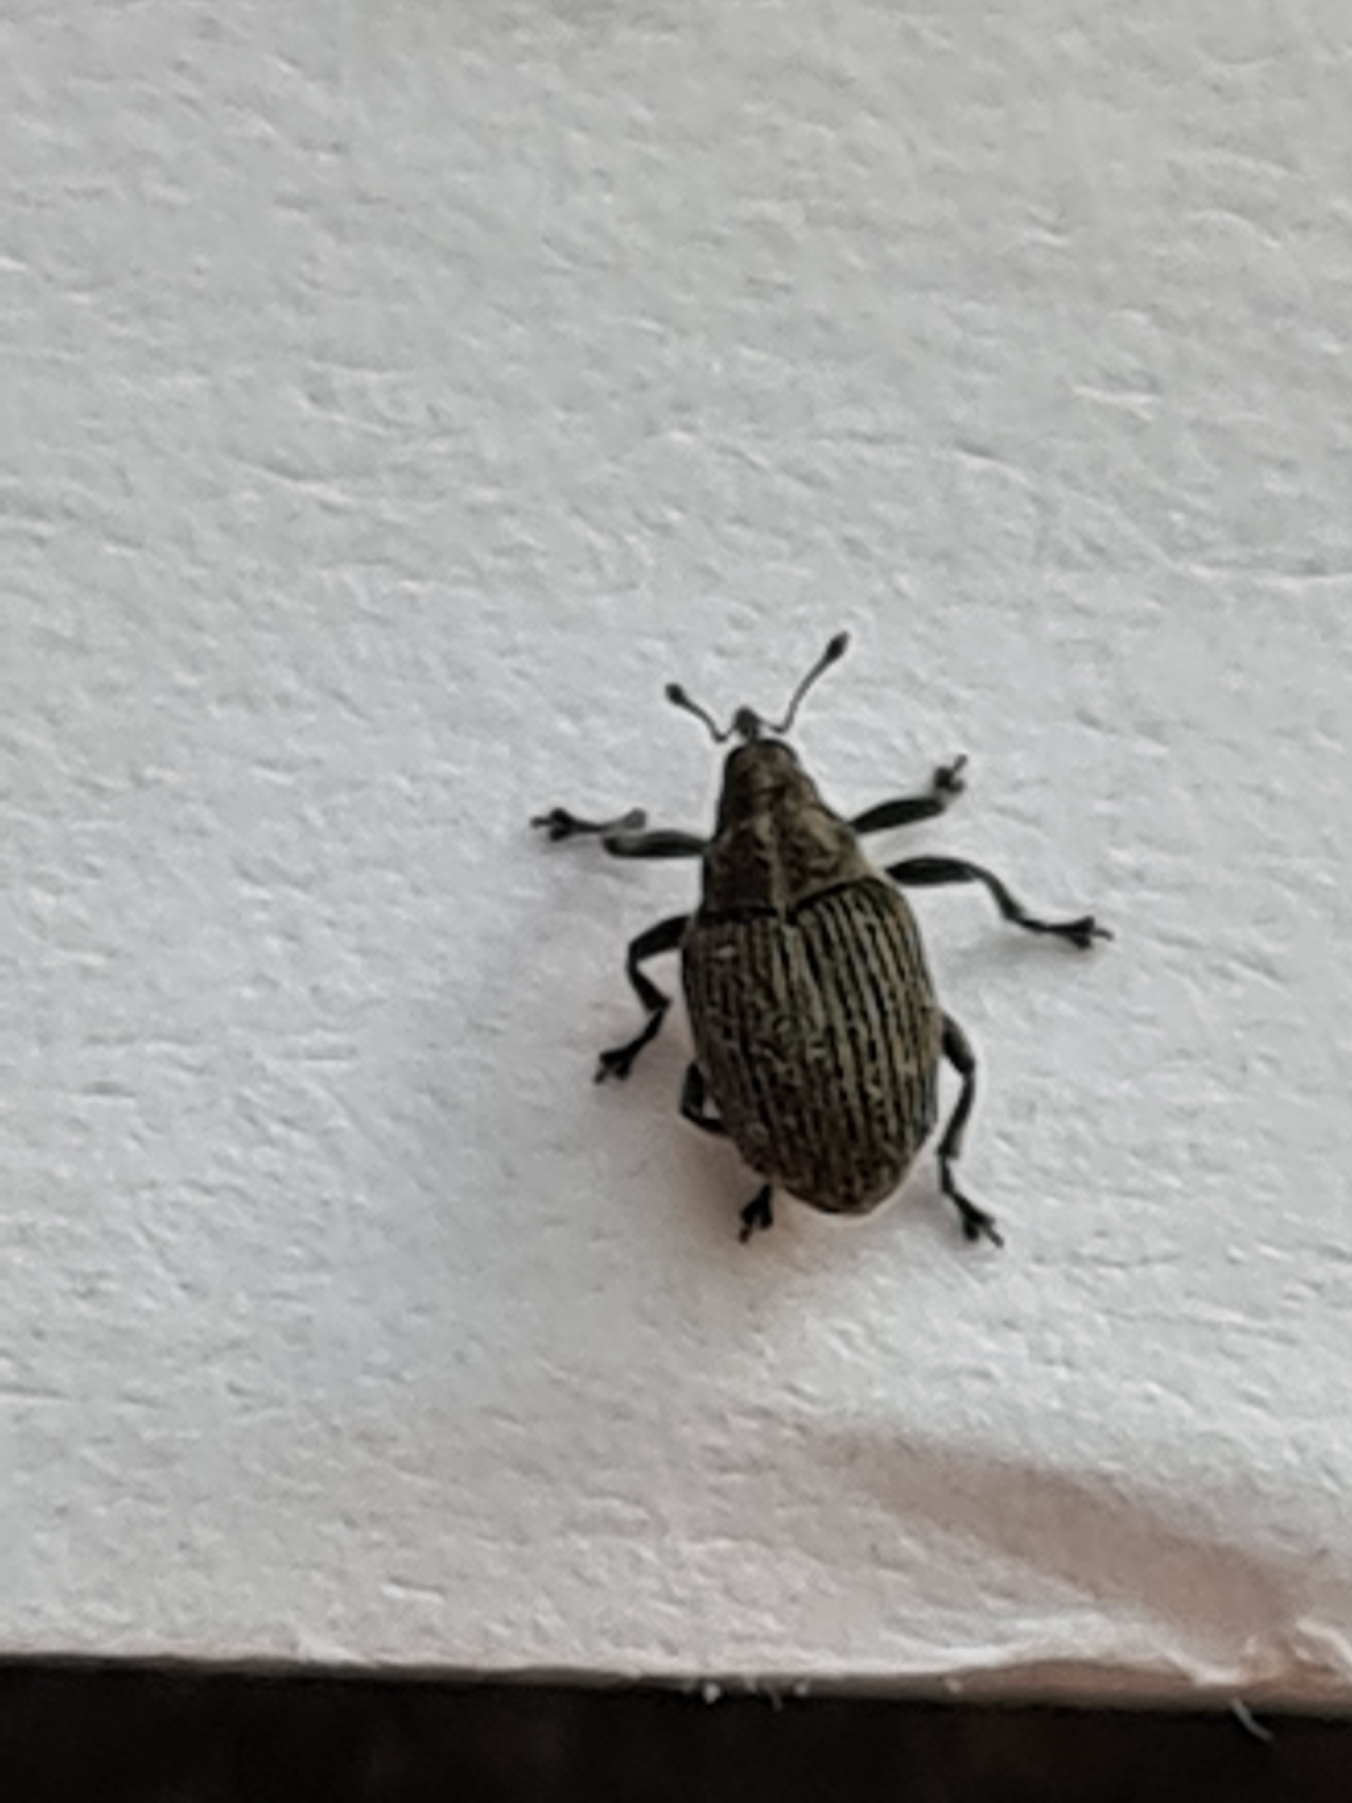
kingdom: Animalia
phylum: Arthropoda
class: Insecta
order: Coleoptera
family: Curculionidae
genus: Ceutorhynchus
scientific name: Ceutorhynchus obstrictus
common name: Blygrå rapssnudebille
